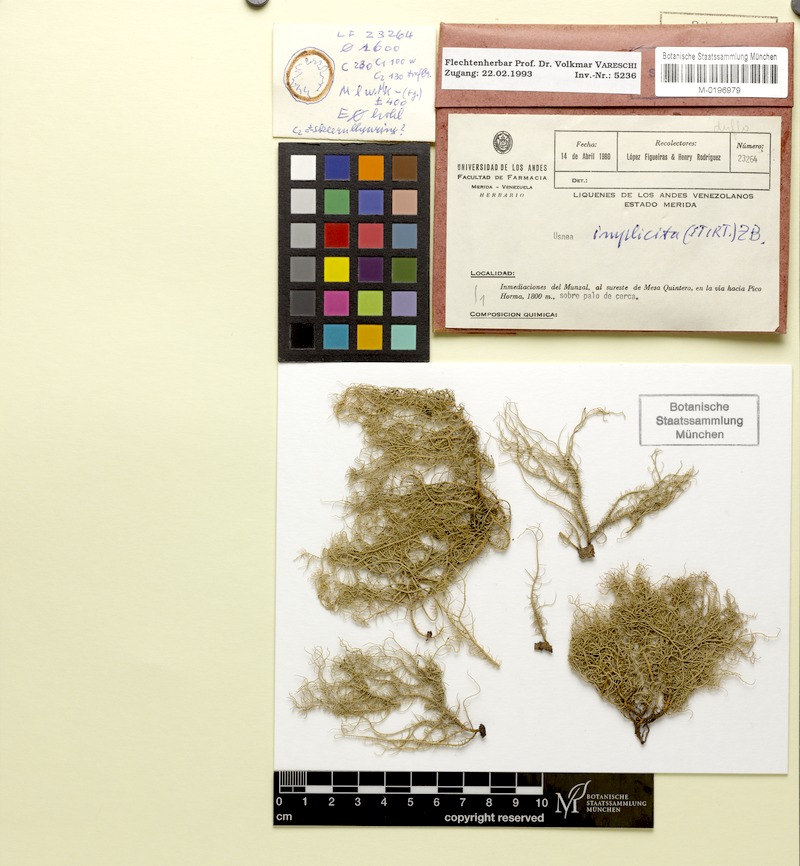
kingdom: Fungi
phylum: Ascomycota
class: Lecanoromycetes
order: Lecanorales
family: Parmeliaceae
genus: Eumitria
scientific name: Eumitria baileyi
